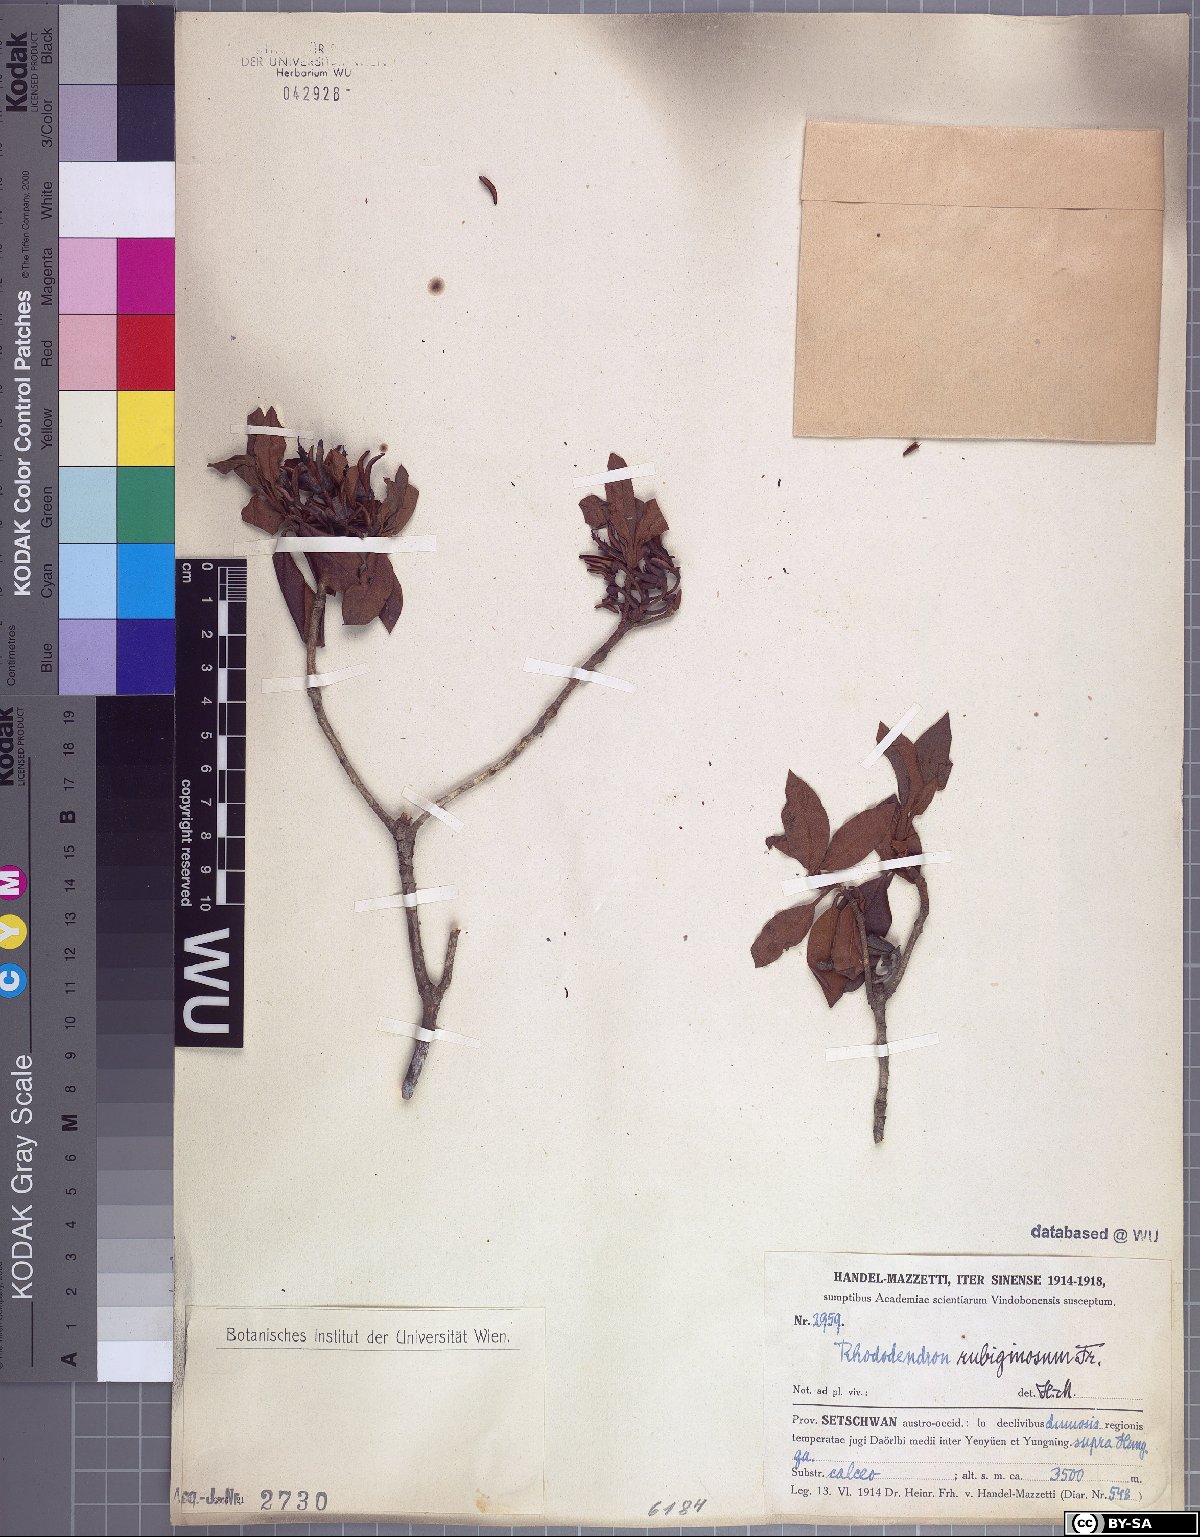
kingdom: Plantae
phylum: Tracheophyta
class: Magnoliopsida
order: Ericales
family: Ericaceae
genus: Rhododendron
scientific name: Rhododendron rubiginosum
